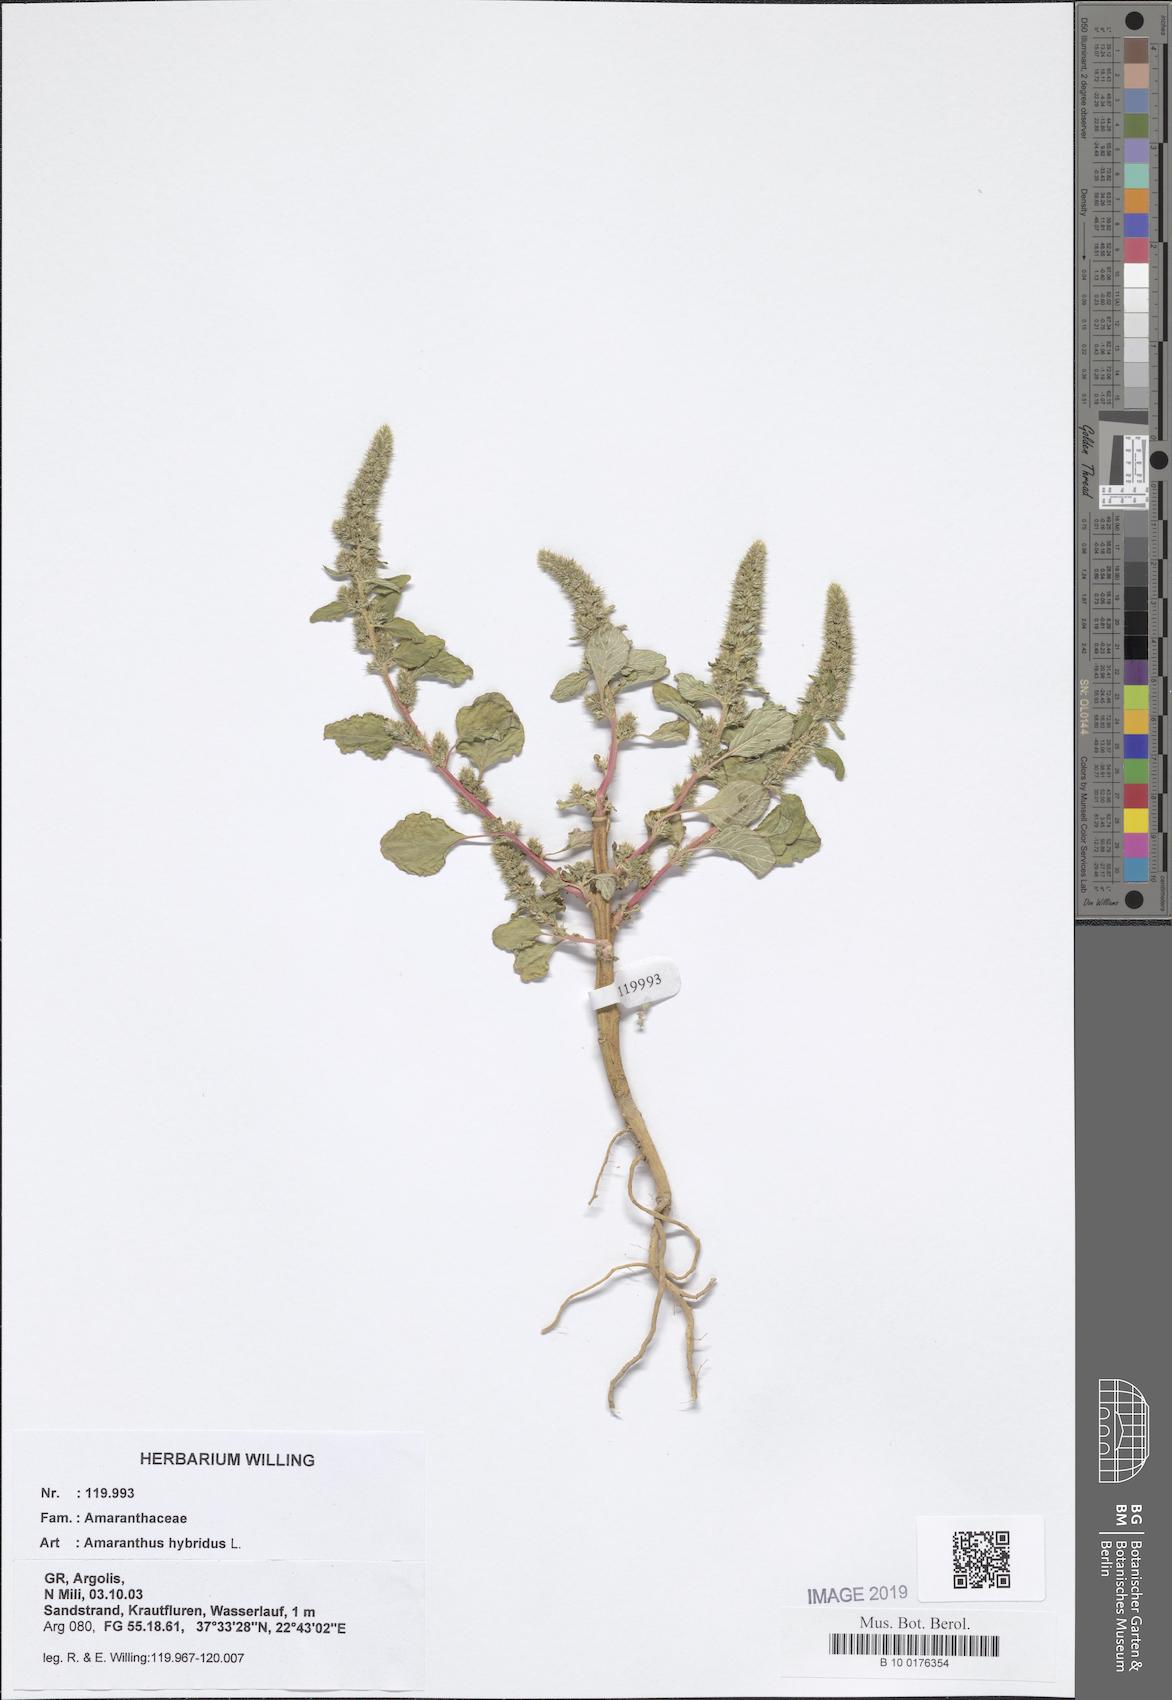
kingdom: Plantae
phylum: Tracheophyta
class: Magnoliopsida
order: Caryophyllales
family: Amaranthaceae
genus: Amaranthus
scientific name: Amaranthus hybridus
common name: Green amaranth
